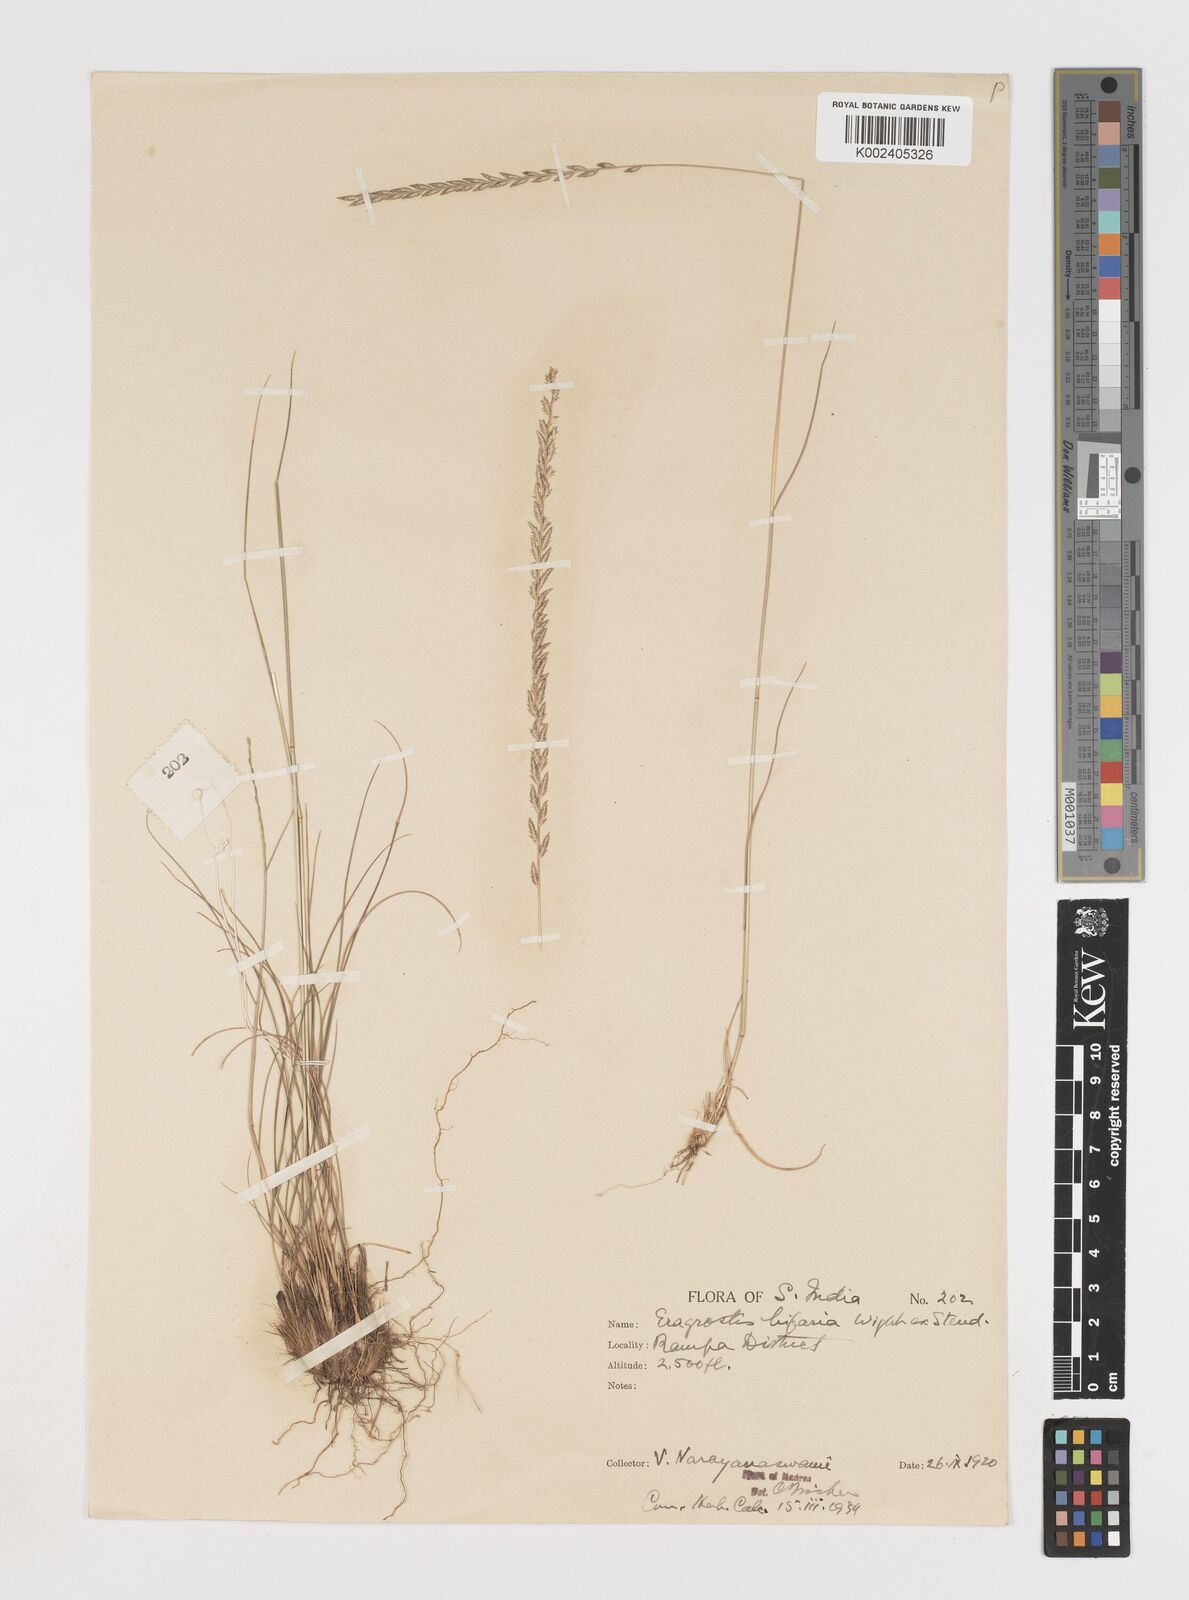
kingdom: Plantae
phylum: Tracheophyta
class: Liliopsida
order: Poales
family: Poaceae
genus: Eragrostiella
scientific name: Eragrostiella bifaria
